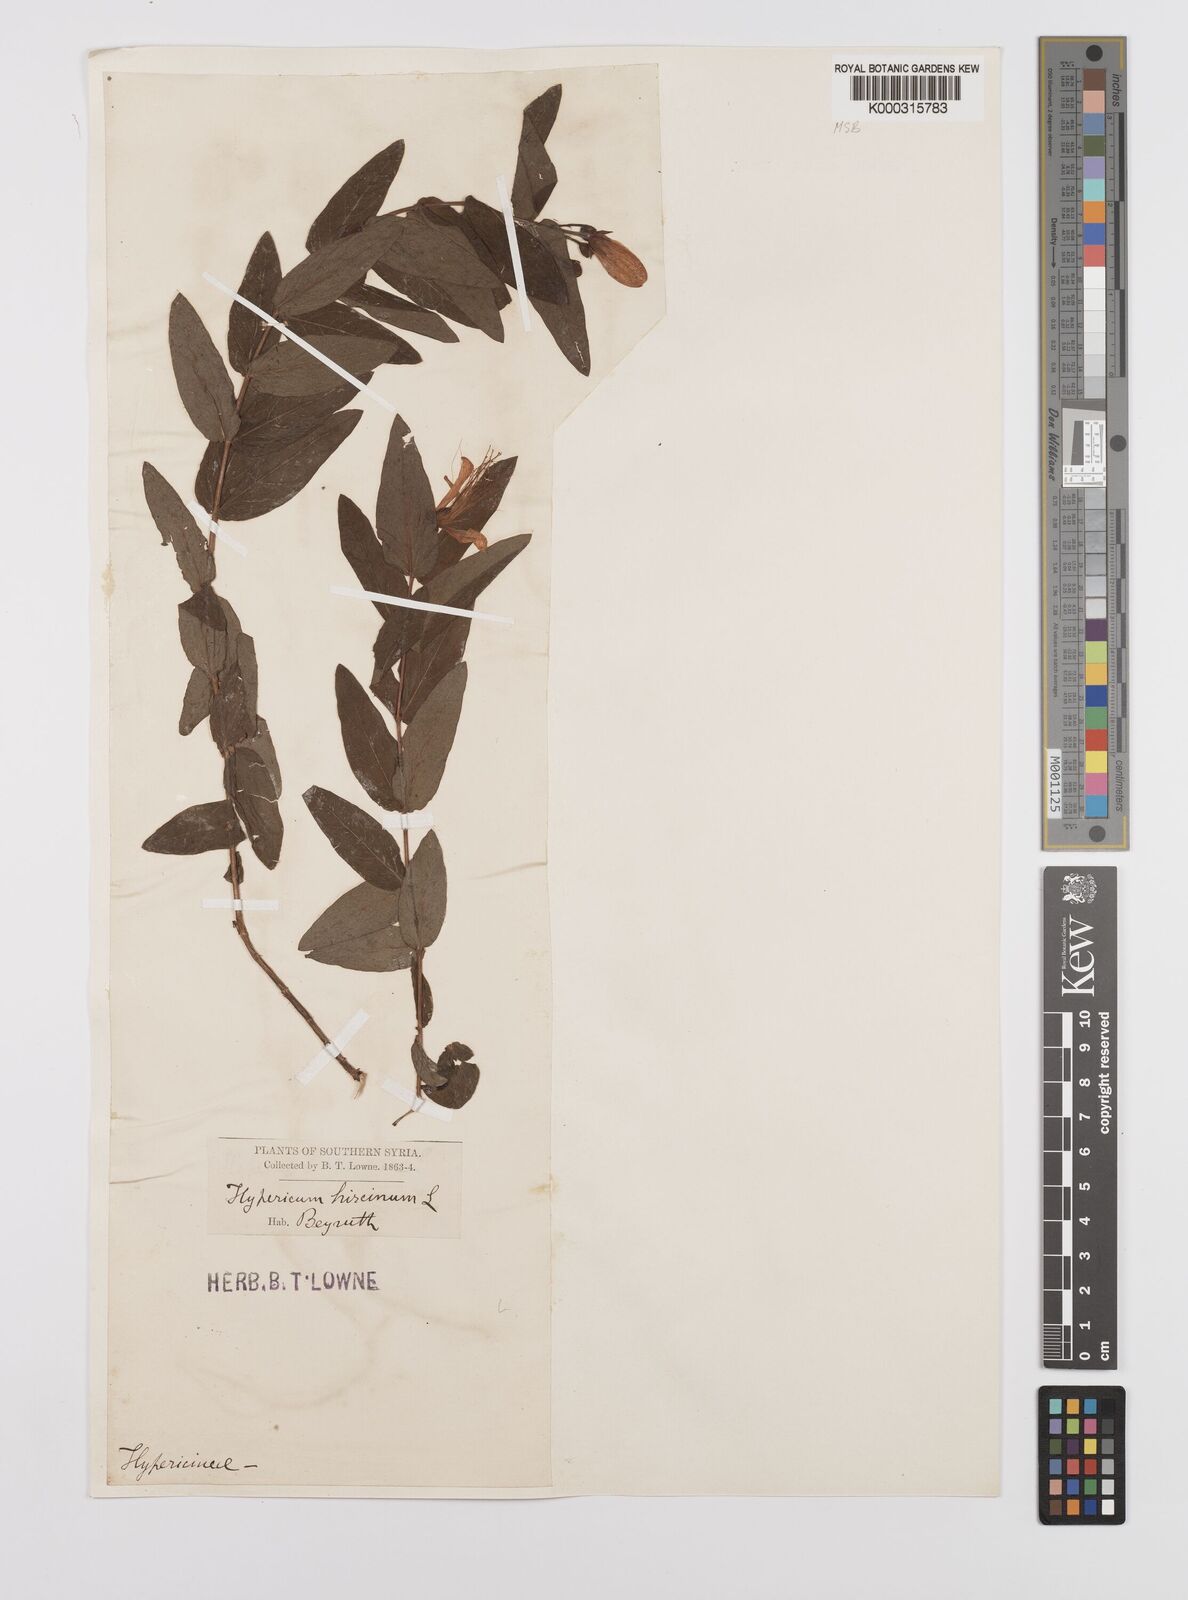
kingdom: Plantae
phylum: Tracheophyta
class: Magnoliopsida
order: Malpighiales
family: Hypericaceae
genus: Hypericum
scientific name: Hypericum hircinum
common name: Stinking tutsan
